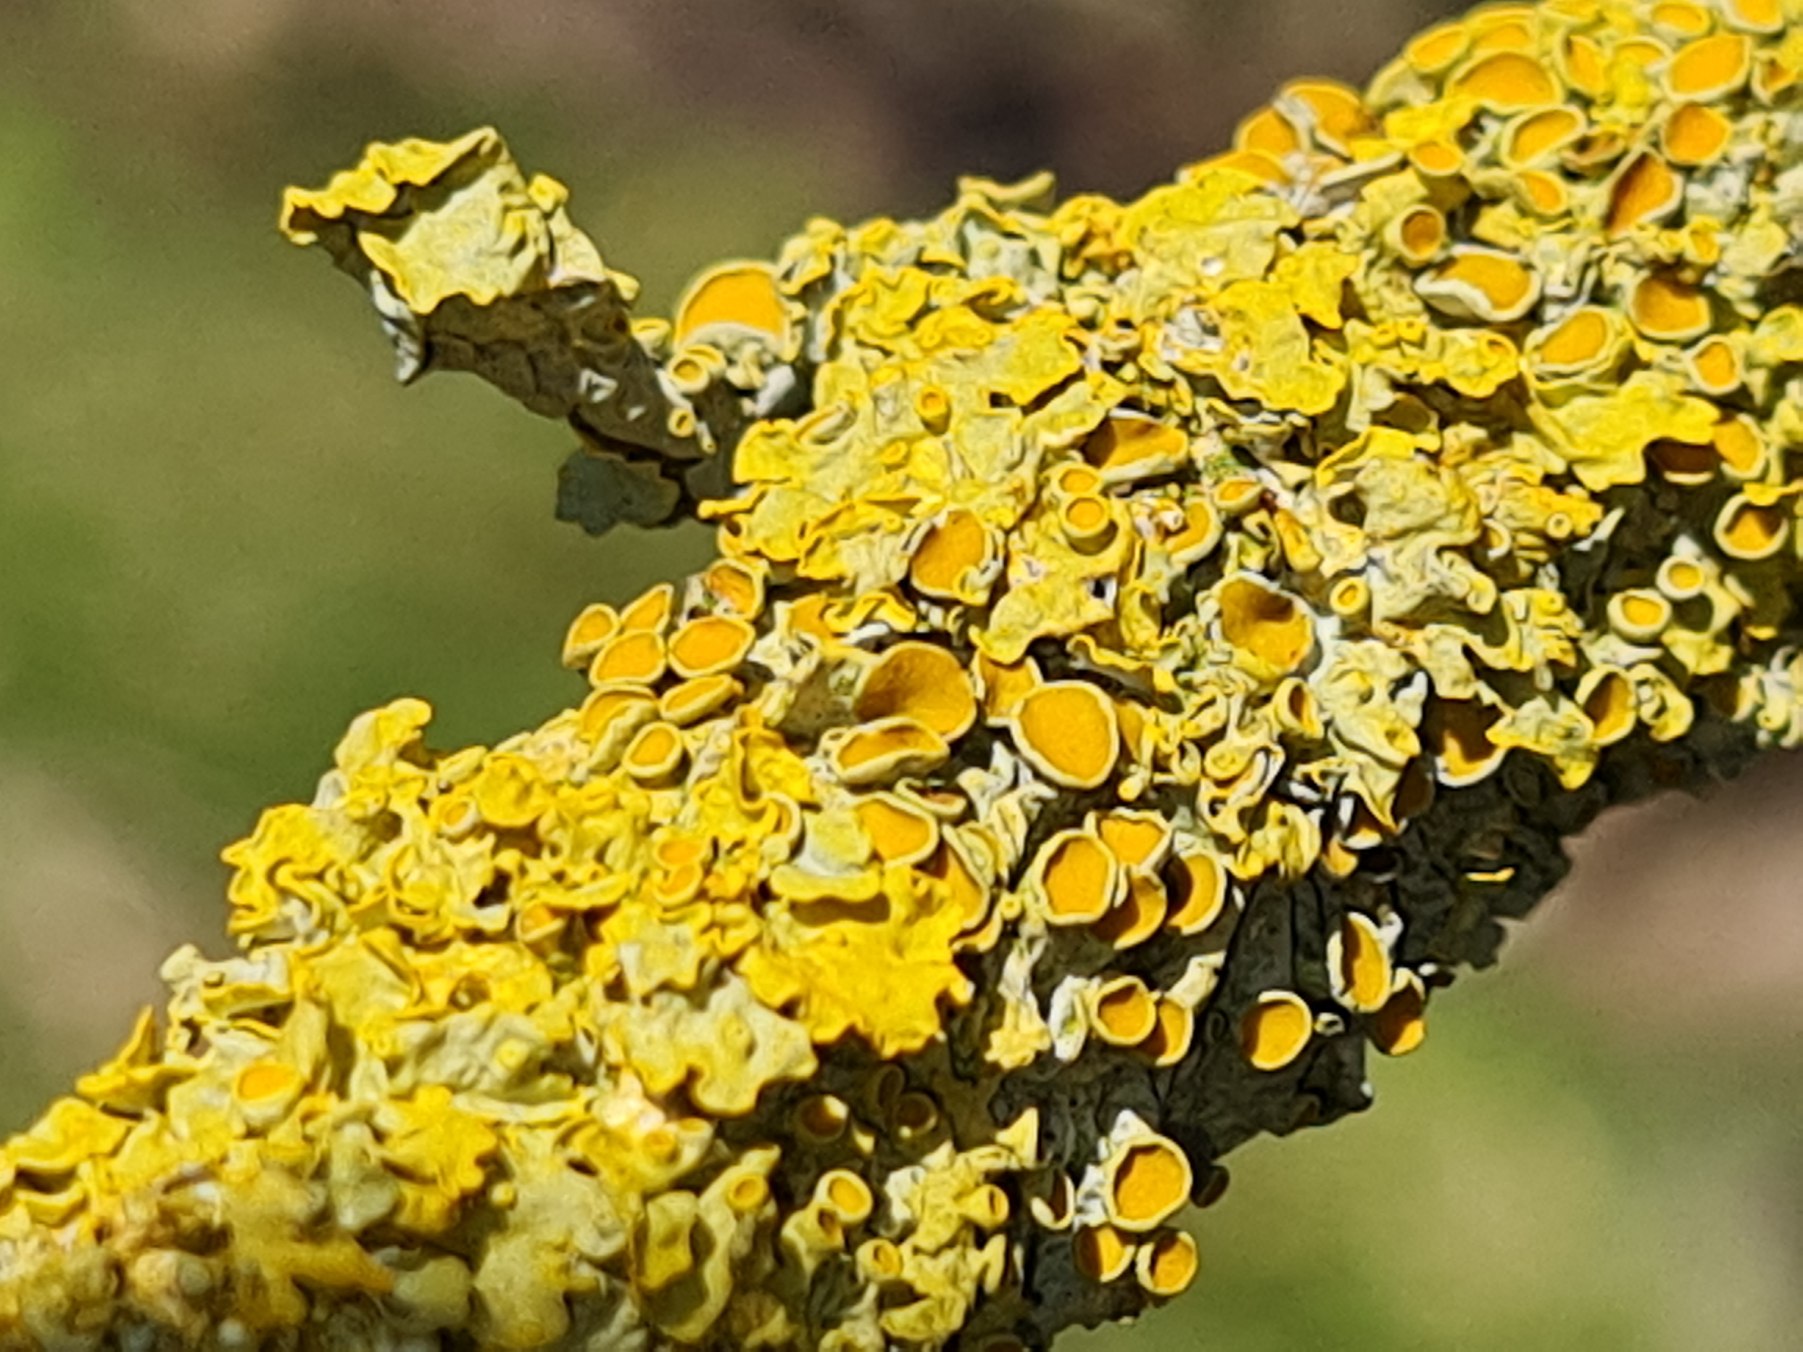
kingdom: Fungi
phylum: Ascomycota
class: Lecanoromycetes
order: Teloschistales
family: Teloschistaceae
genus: Xanthoria
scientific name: Xanthoria parietina
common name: Almindelig væggelav
